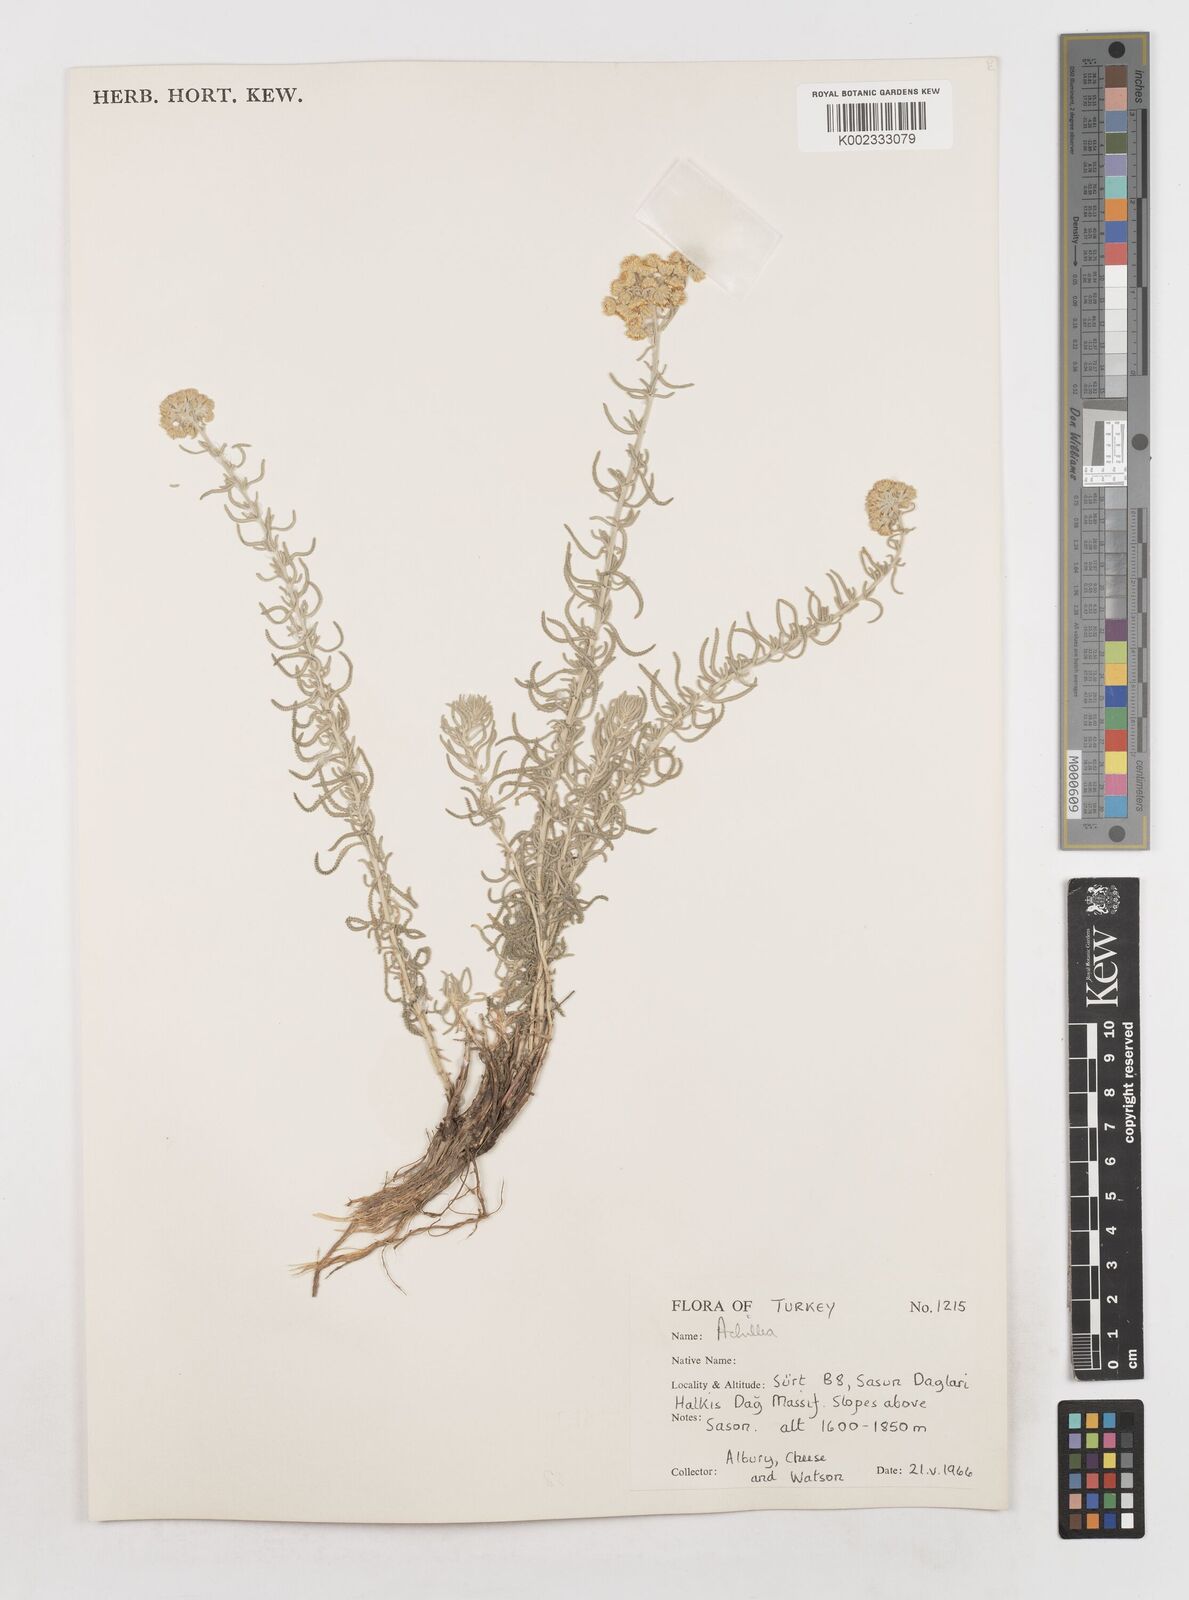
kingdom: Plantae
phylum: Tracheophyta
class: Magnoliopsida
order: Asterales
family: Asteraceae
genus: Achillea
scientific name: Achillea
